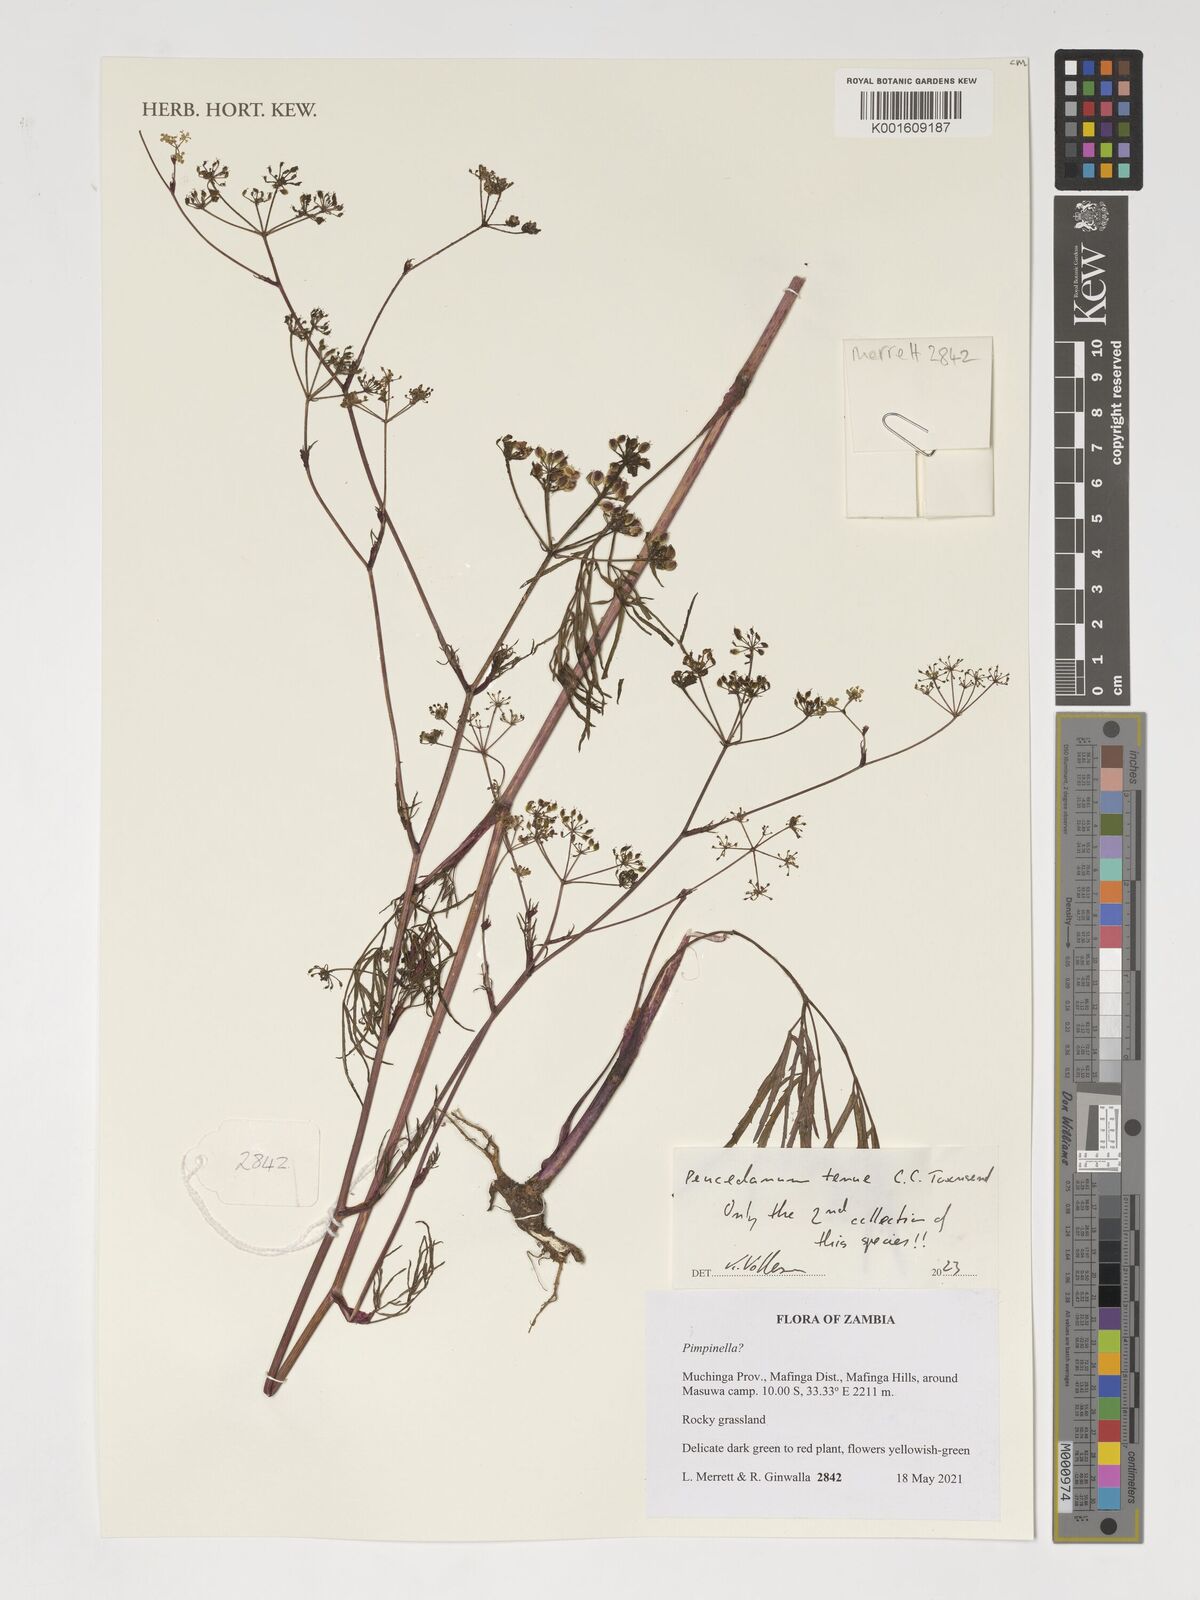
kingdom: Plantae
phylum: Tracheophyta
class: Magnoliopsida
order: Apiales
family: Apiaceae
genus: Lefebvrea
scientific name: Lefebvrea tenuis
